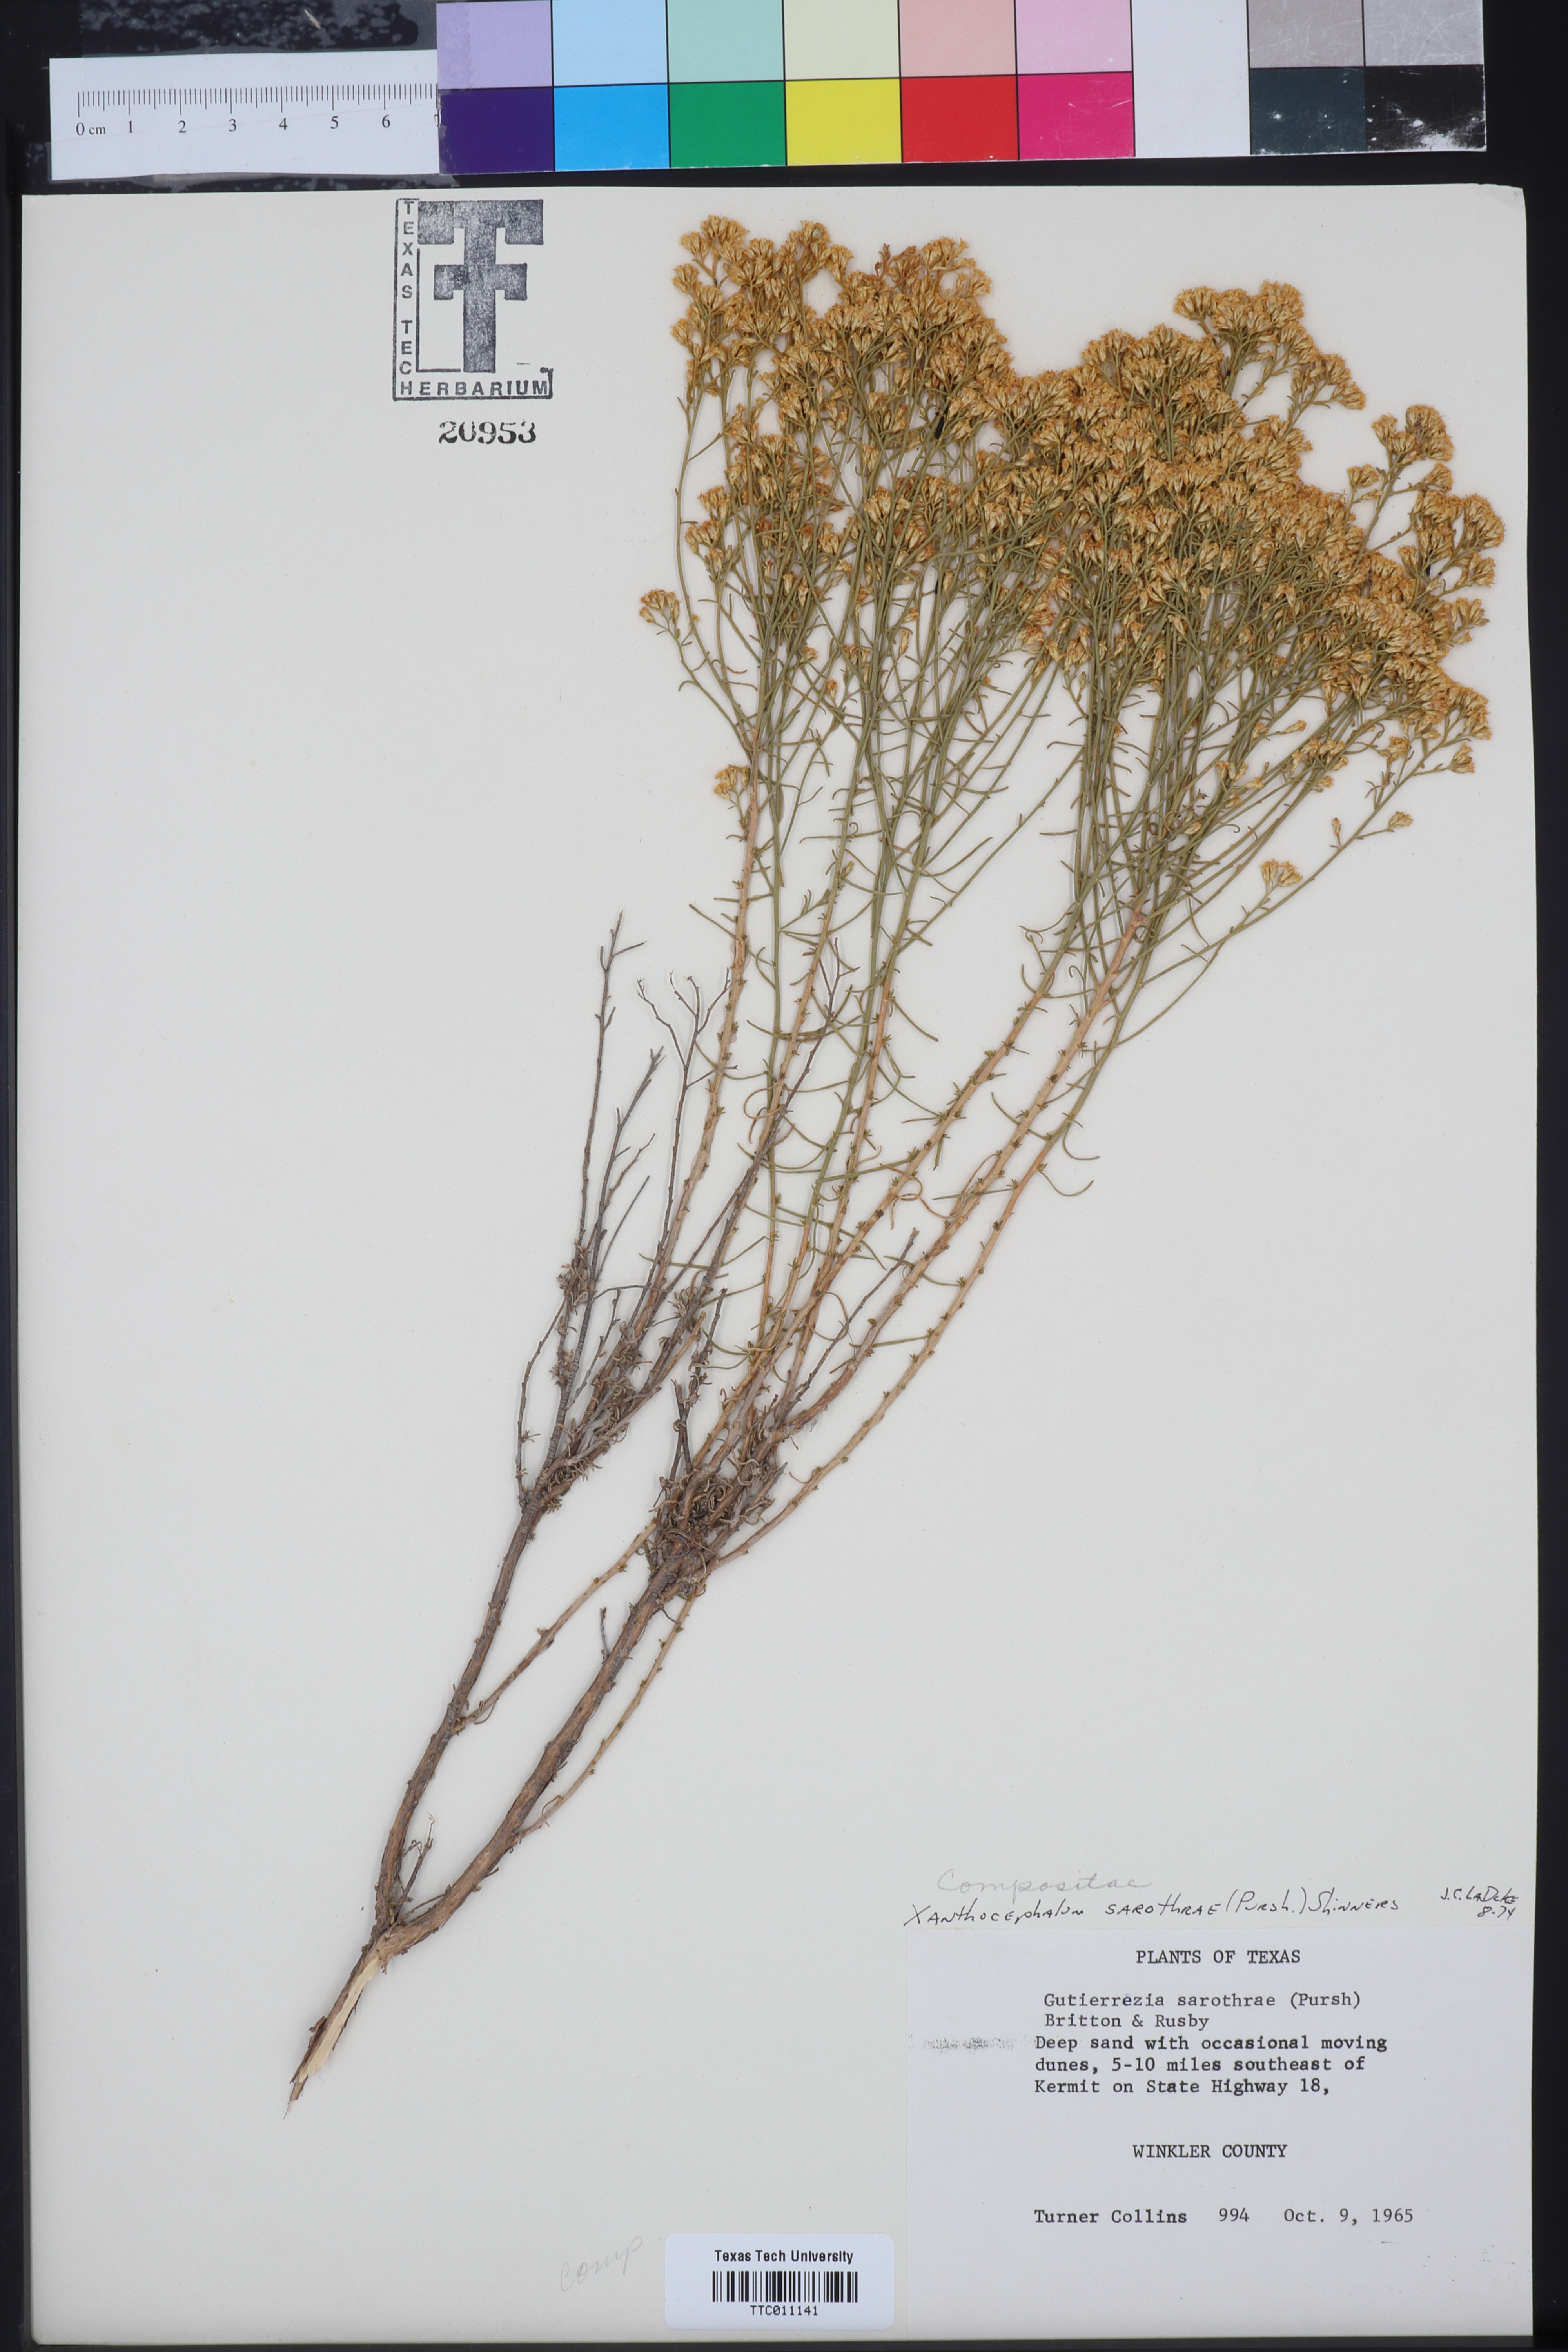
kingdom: Plantae
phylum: Tracheophyta
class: Magnoliopsida
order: Asterales
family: Asteraceae
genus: Gutierrezia
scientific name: Gutierrezia sarothrae
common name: Broom snakeweed
